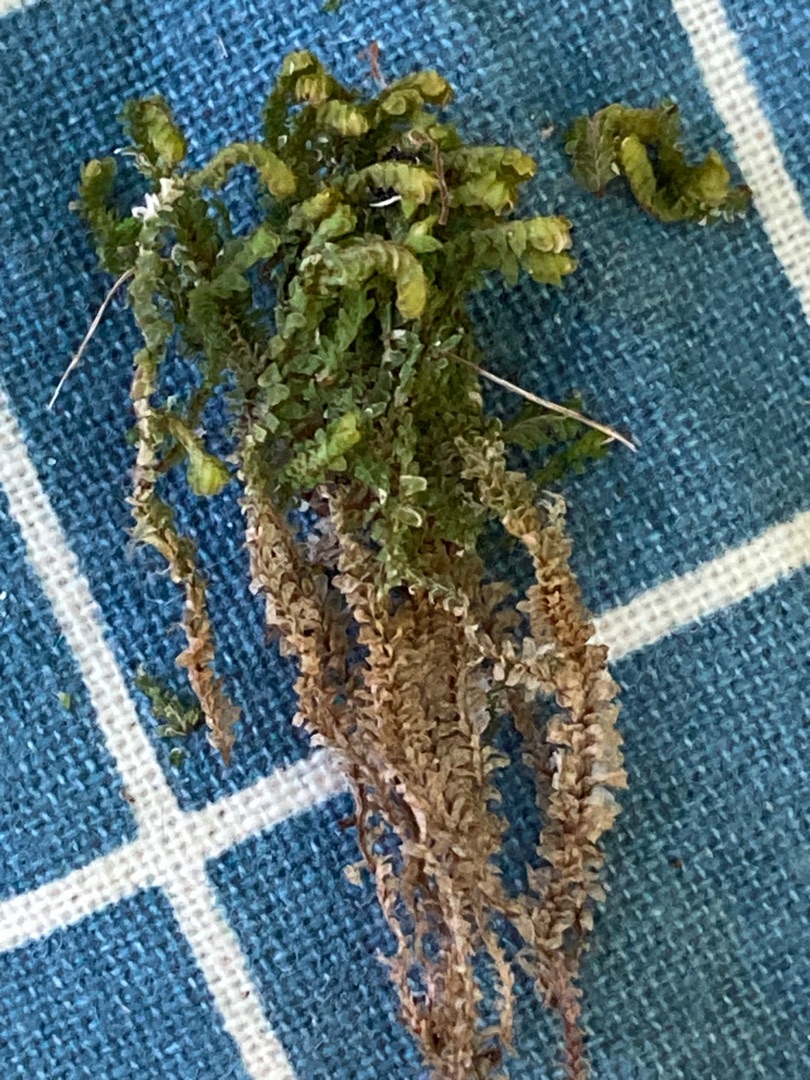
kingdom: Plantae
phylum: Marchantiophyta
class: Jungermanniopsida
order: Jungermanniales
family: Scapaniaceae
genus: Diplophyllum
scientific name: Diplophyllum albicans
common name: Stribet dobbeltblad
